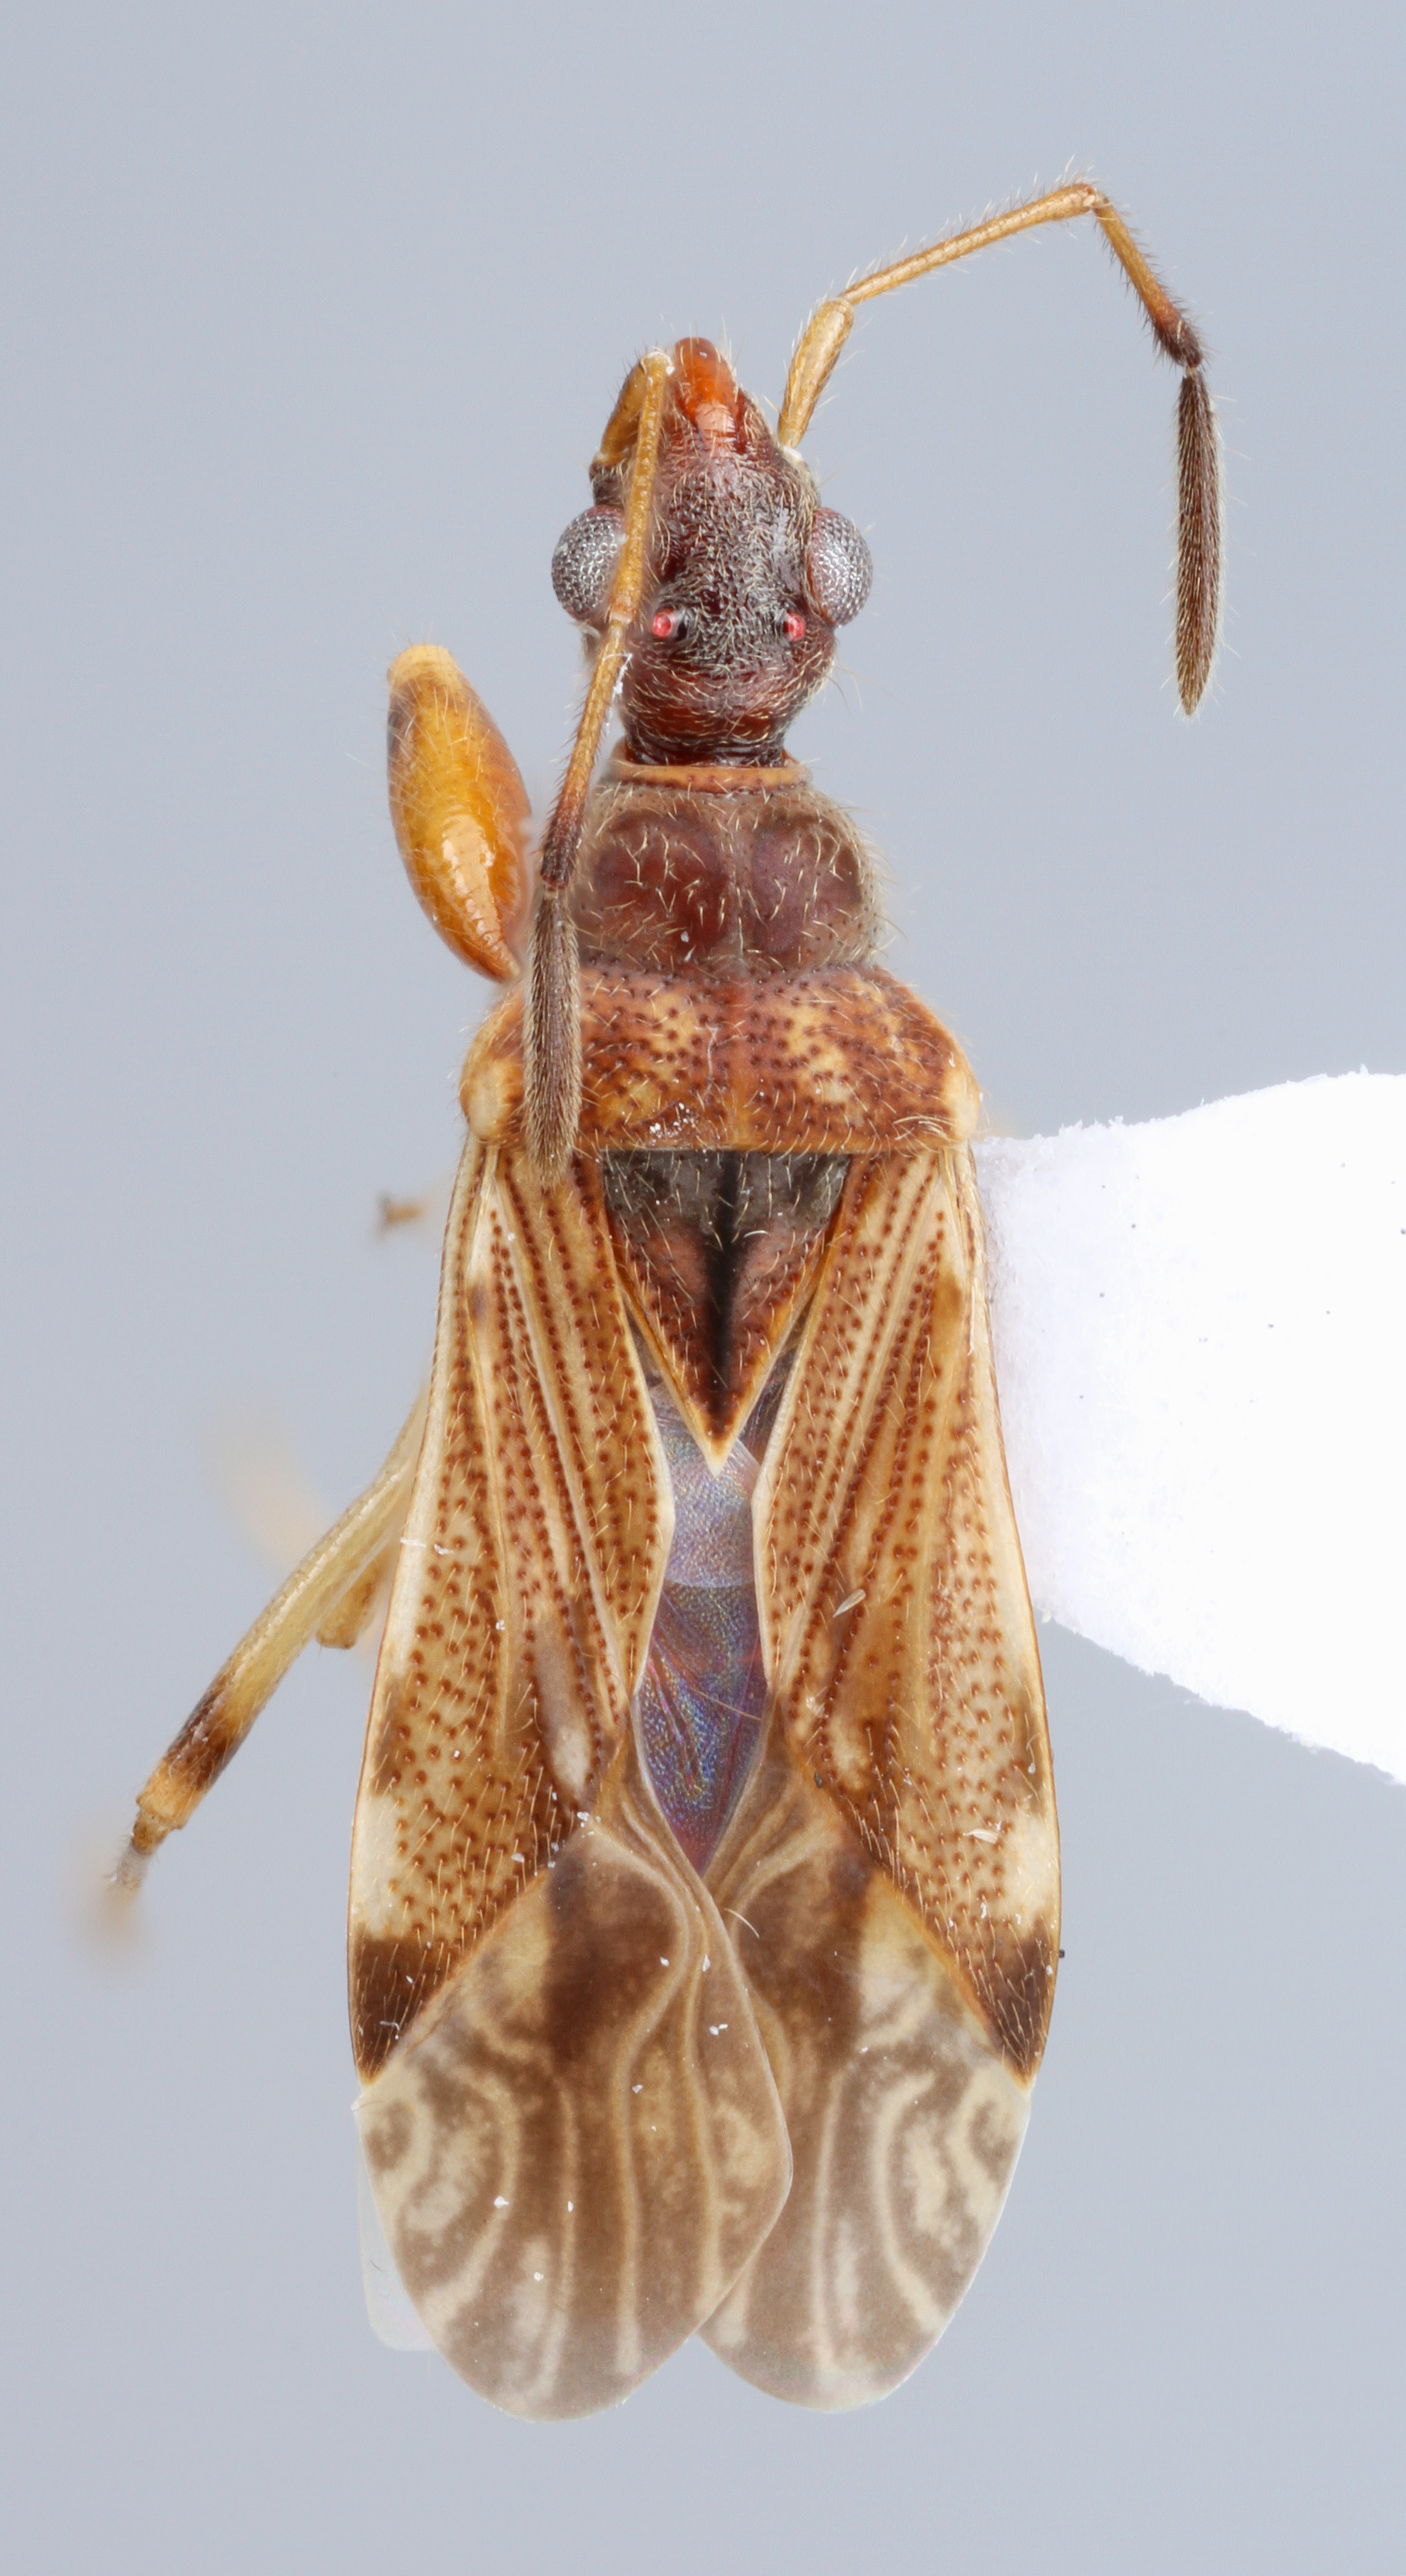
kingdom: Animalia
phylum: Arthropoda
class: Insecta
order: Hemiptera
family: Rhyparochromidae
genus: Heraeus
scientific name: Heraeus plebejus
